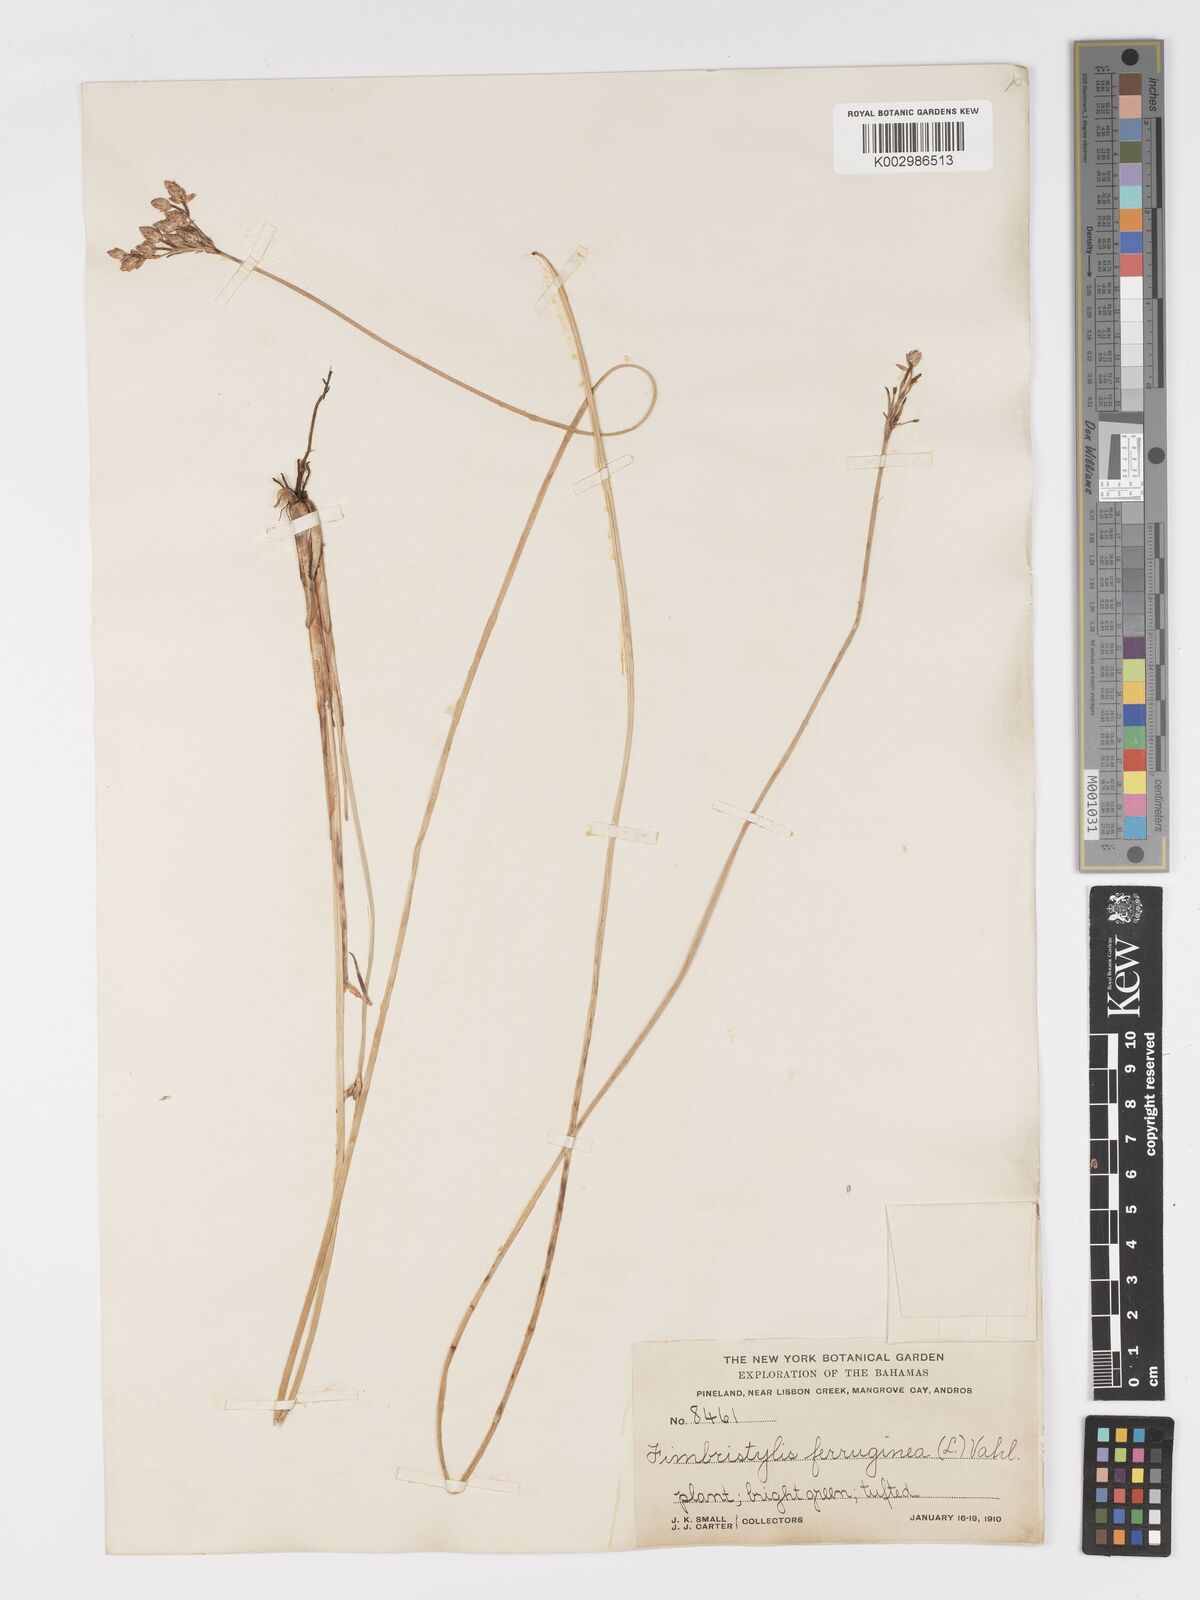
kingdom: Plantae
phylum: Tracheophyta
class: Liliopsida
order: Poales
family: Cyperaceae
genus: Fimbristylis
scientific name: Fimbristylis ferruginea
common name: West indian fimbry
